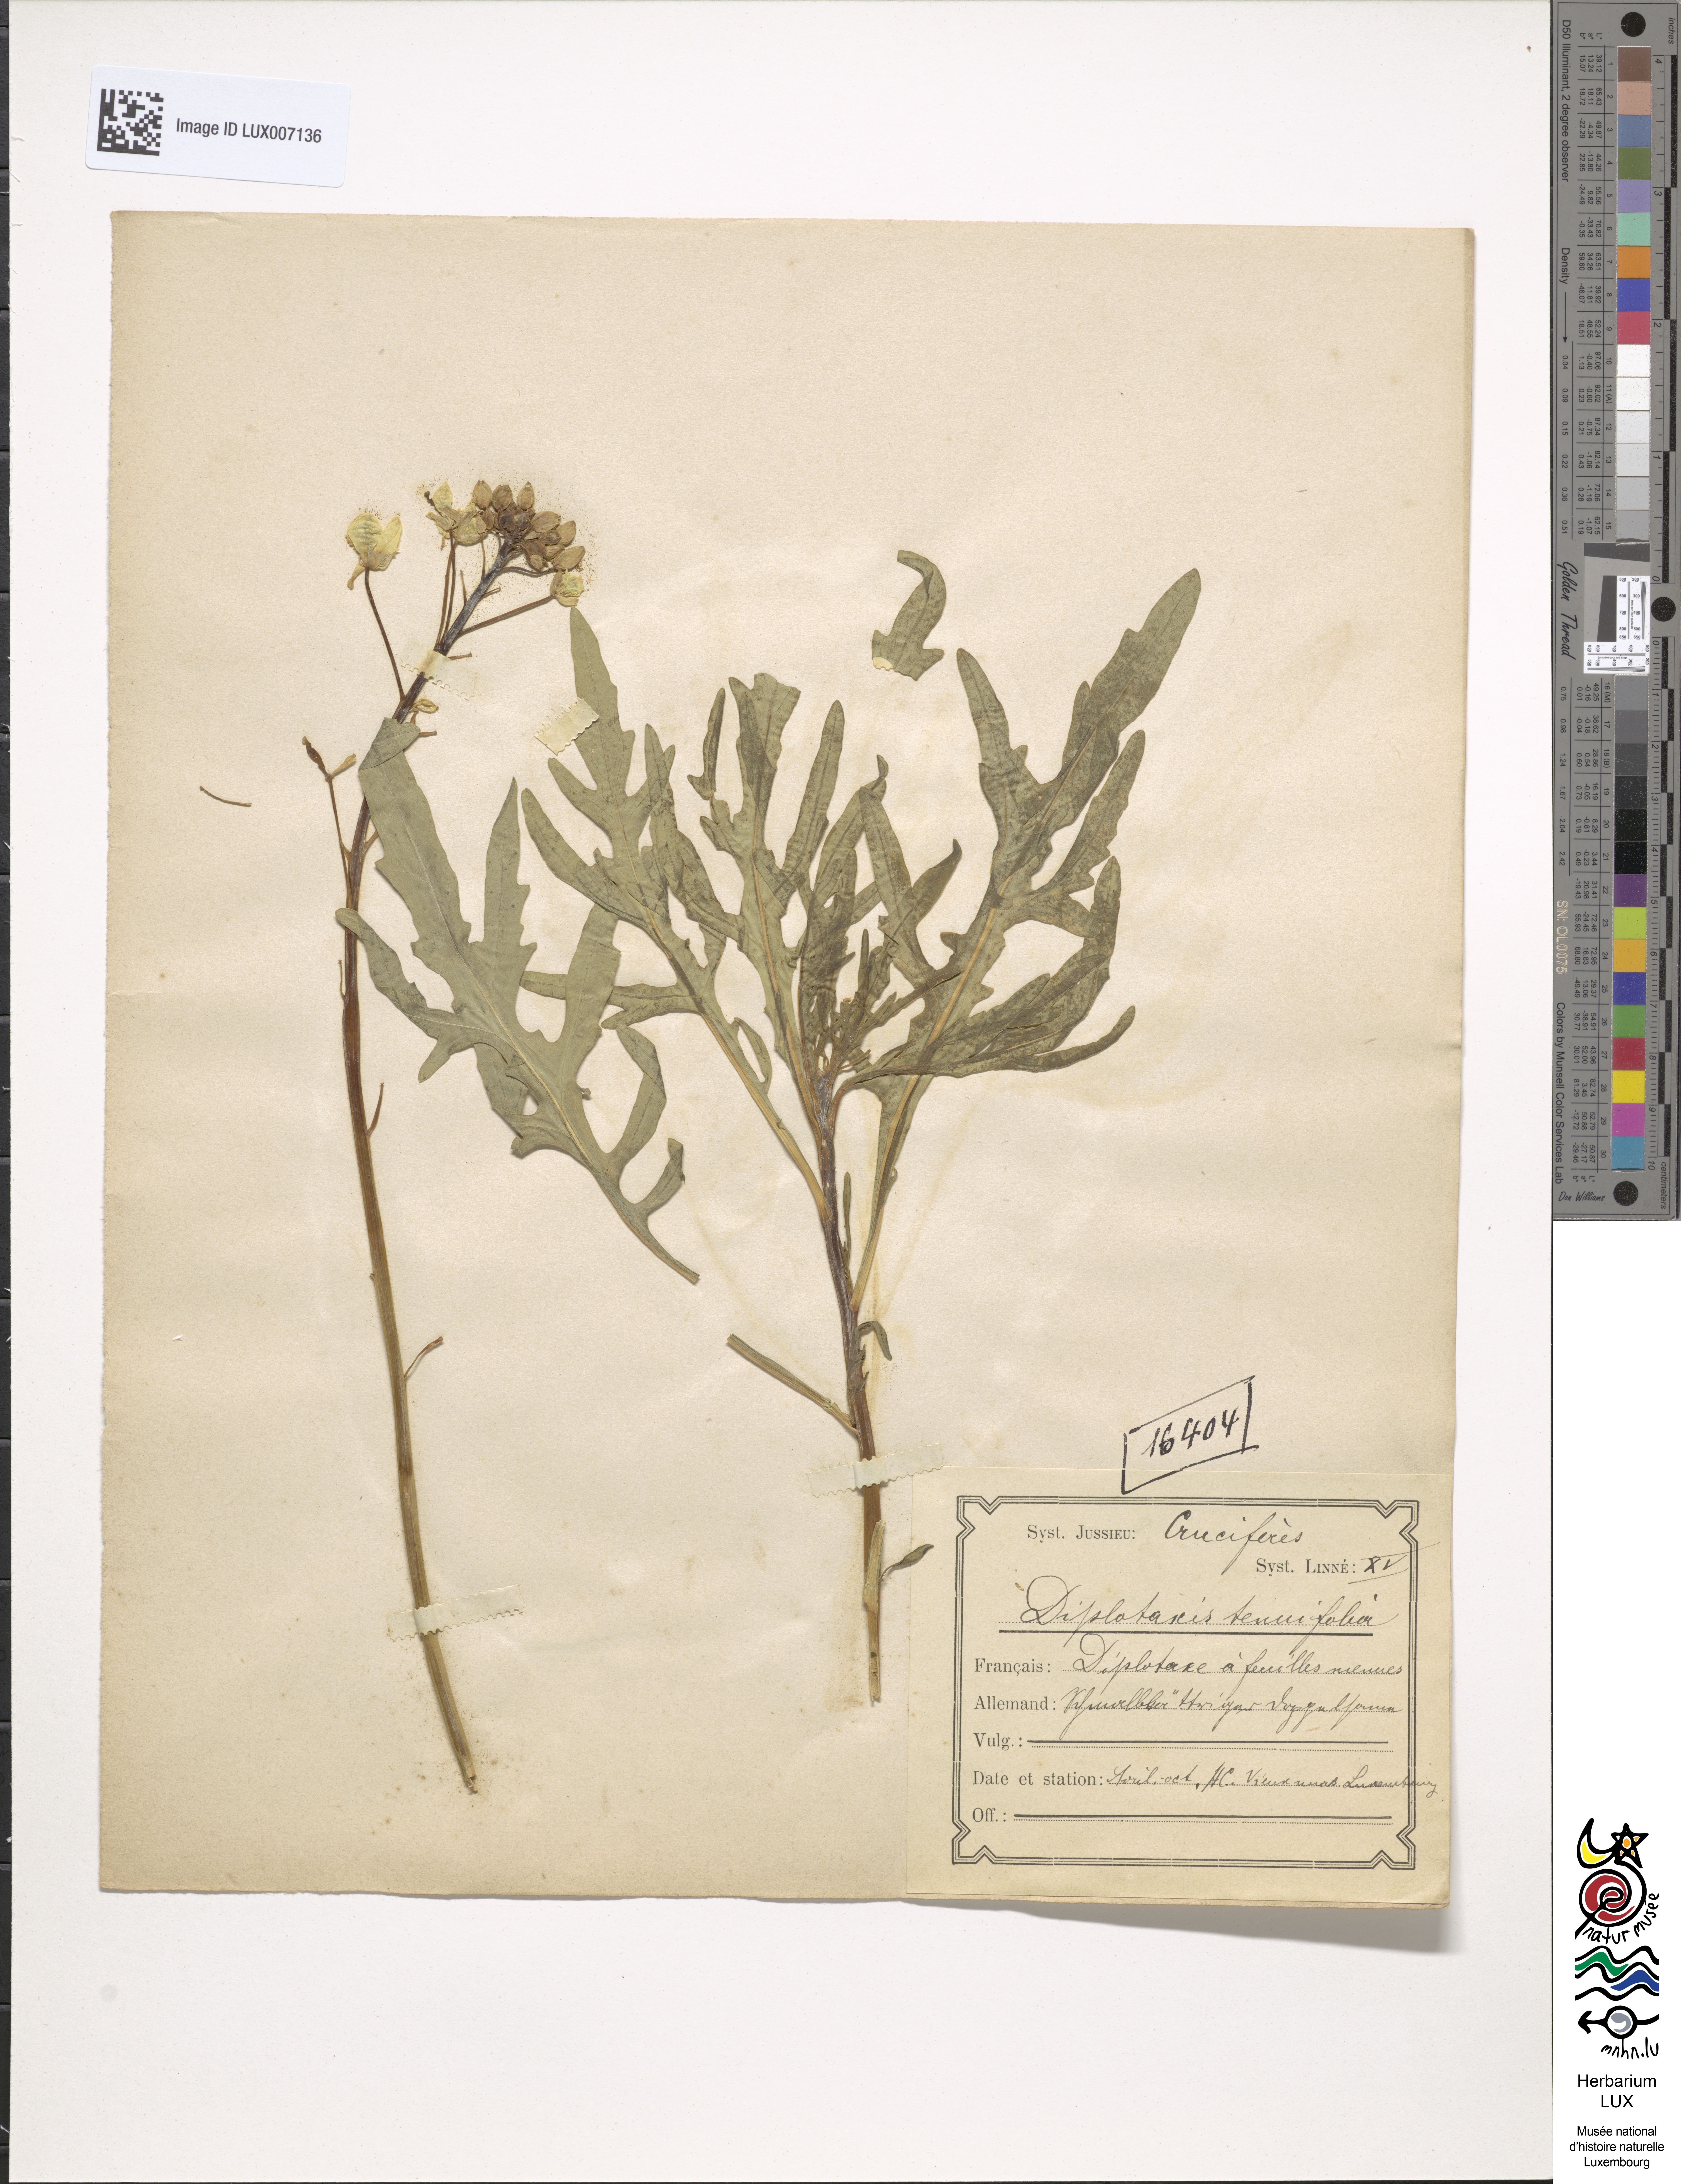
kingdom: Plantae
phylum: Tracheophyta
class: Magnoliopsida
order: Brassicales
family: Brassicaceae
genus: Diplotaxis
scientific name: Diplotaxis tenuifolia
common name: Perennial wall-rocket
